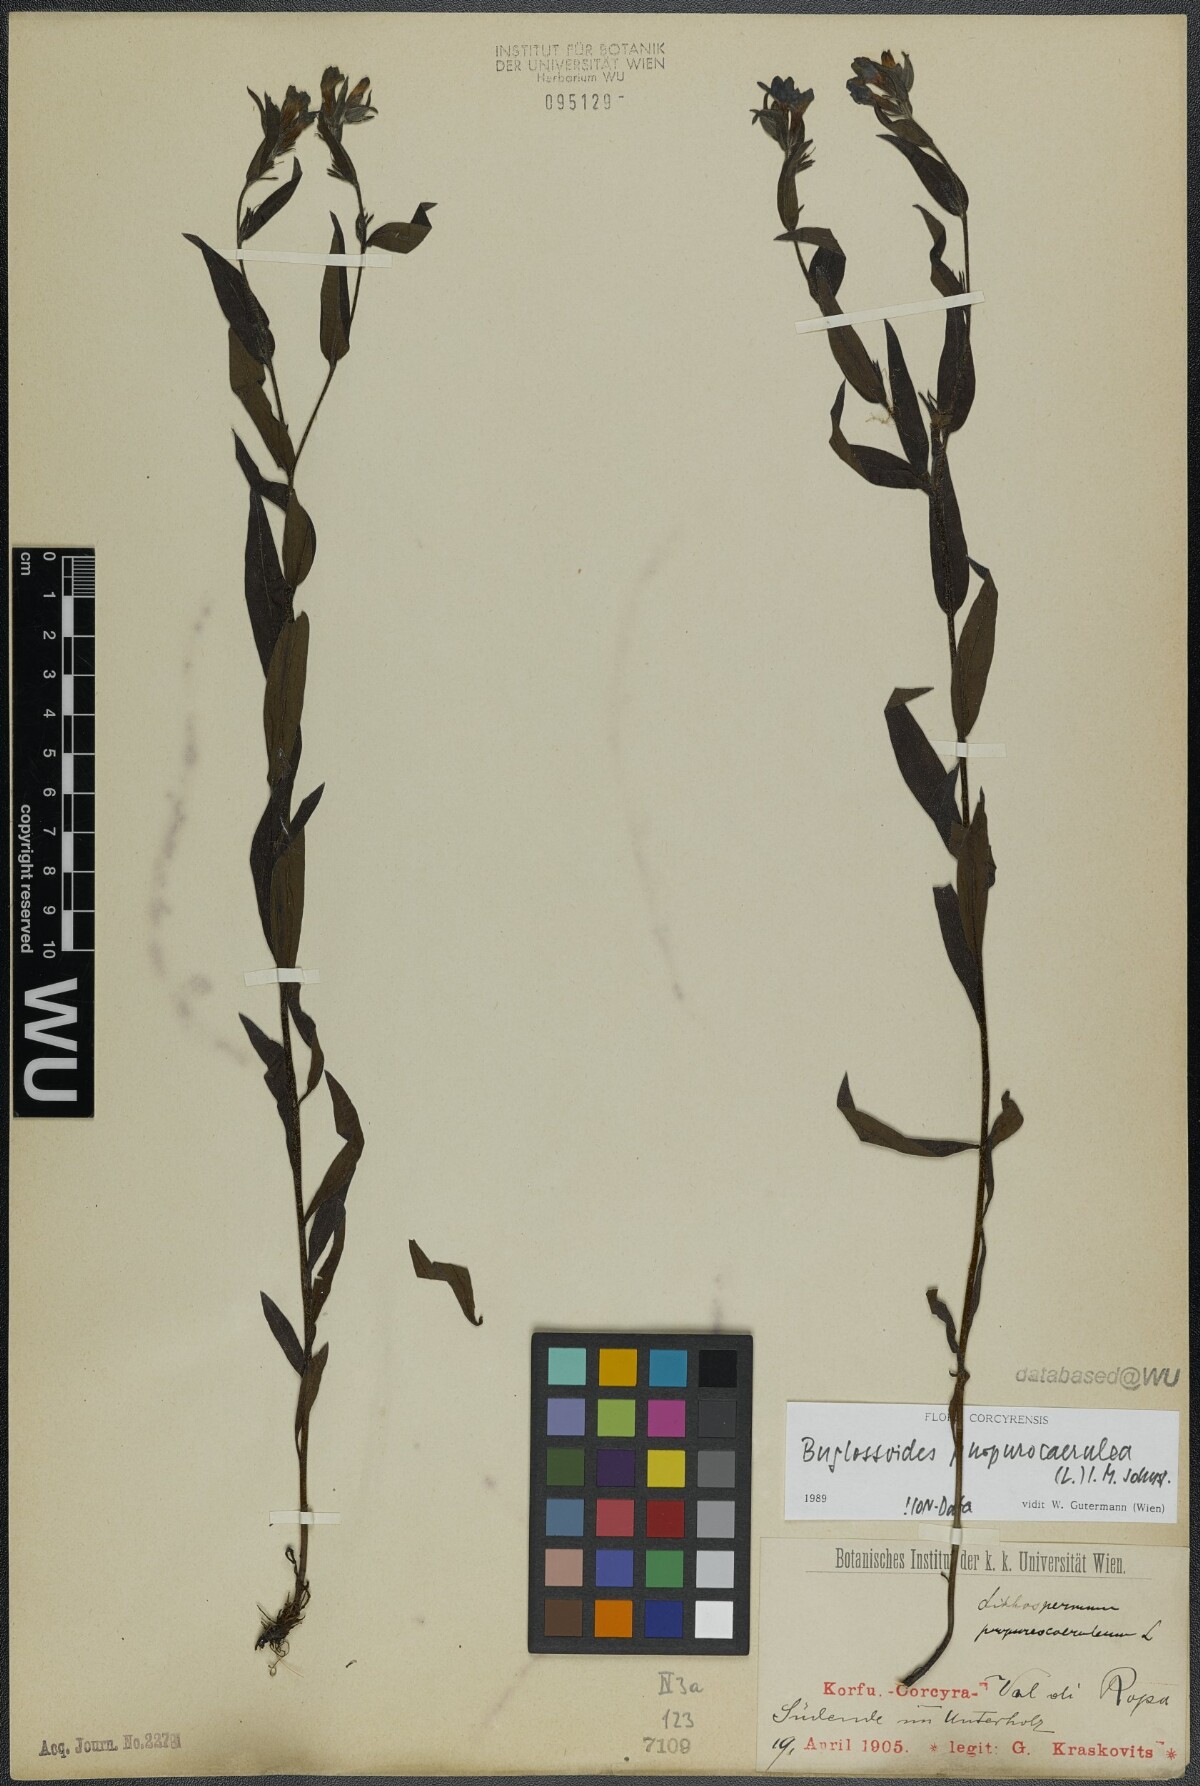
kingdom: Plantae
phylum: Tracheophyta
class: Magnoliopsida
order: Boraginales
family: Boraginaceae
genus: Aegonychon
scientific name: Aegonychon purpurocaeruleum
